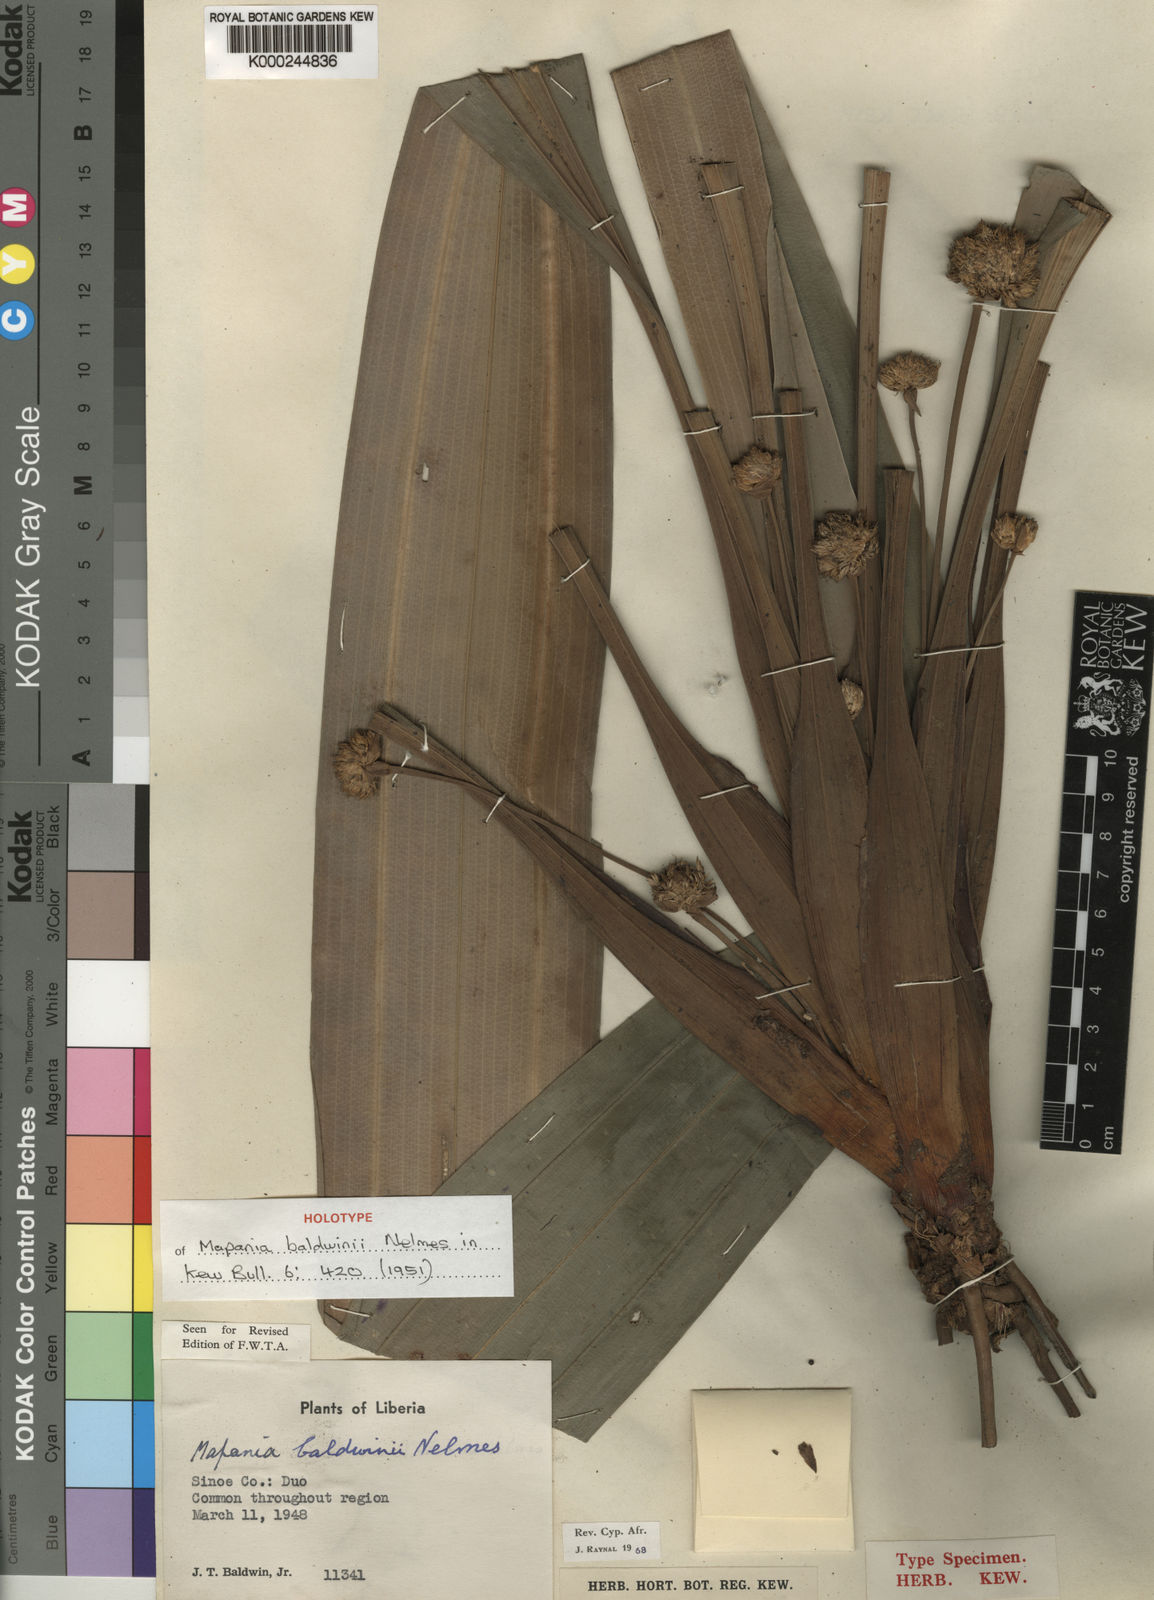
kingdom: Plantae
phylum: Tracheophyta
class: Liliopsida
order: Poales
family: Cyperaceae
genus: Mapania
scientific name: Mapania baldwinii
